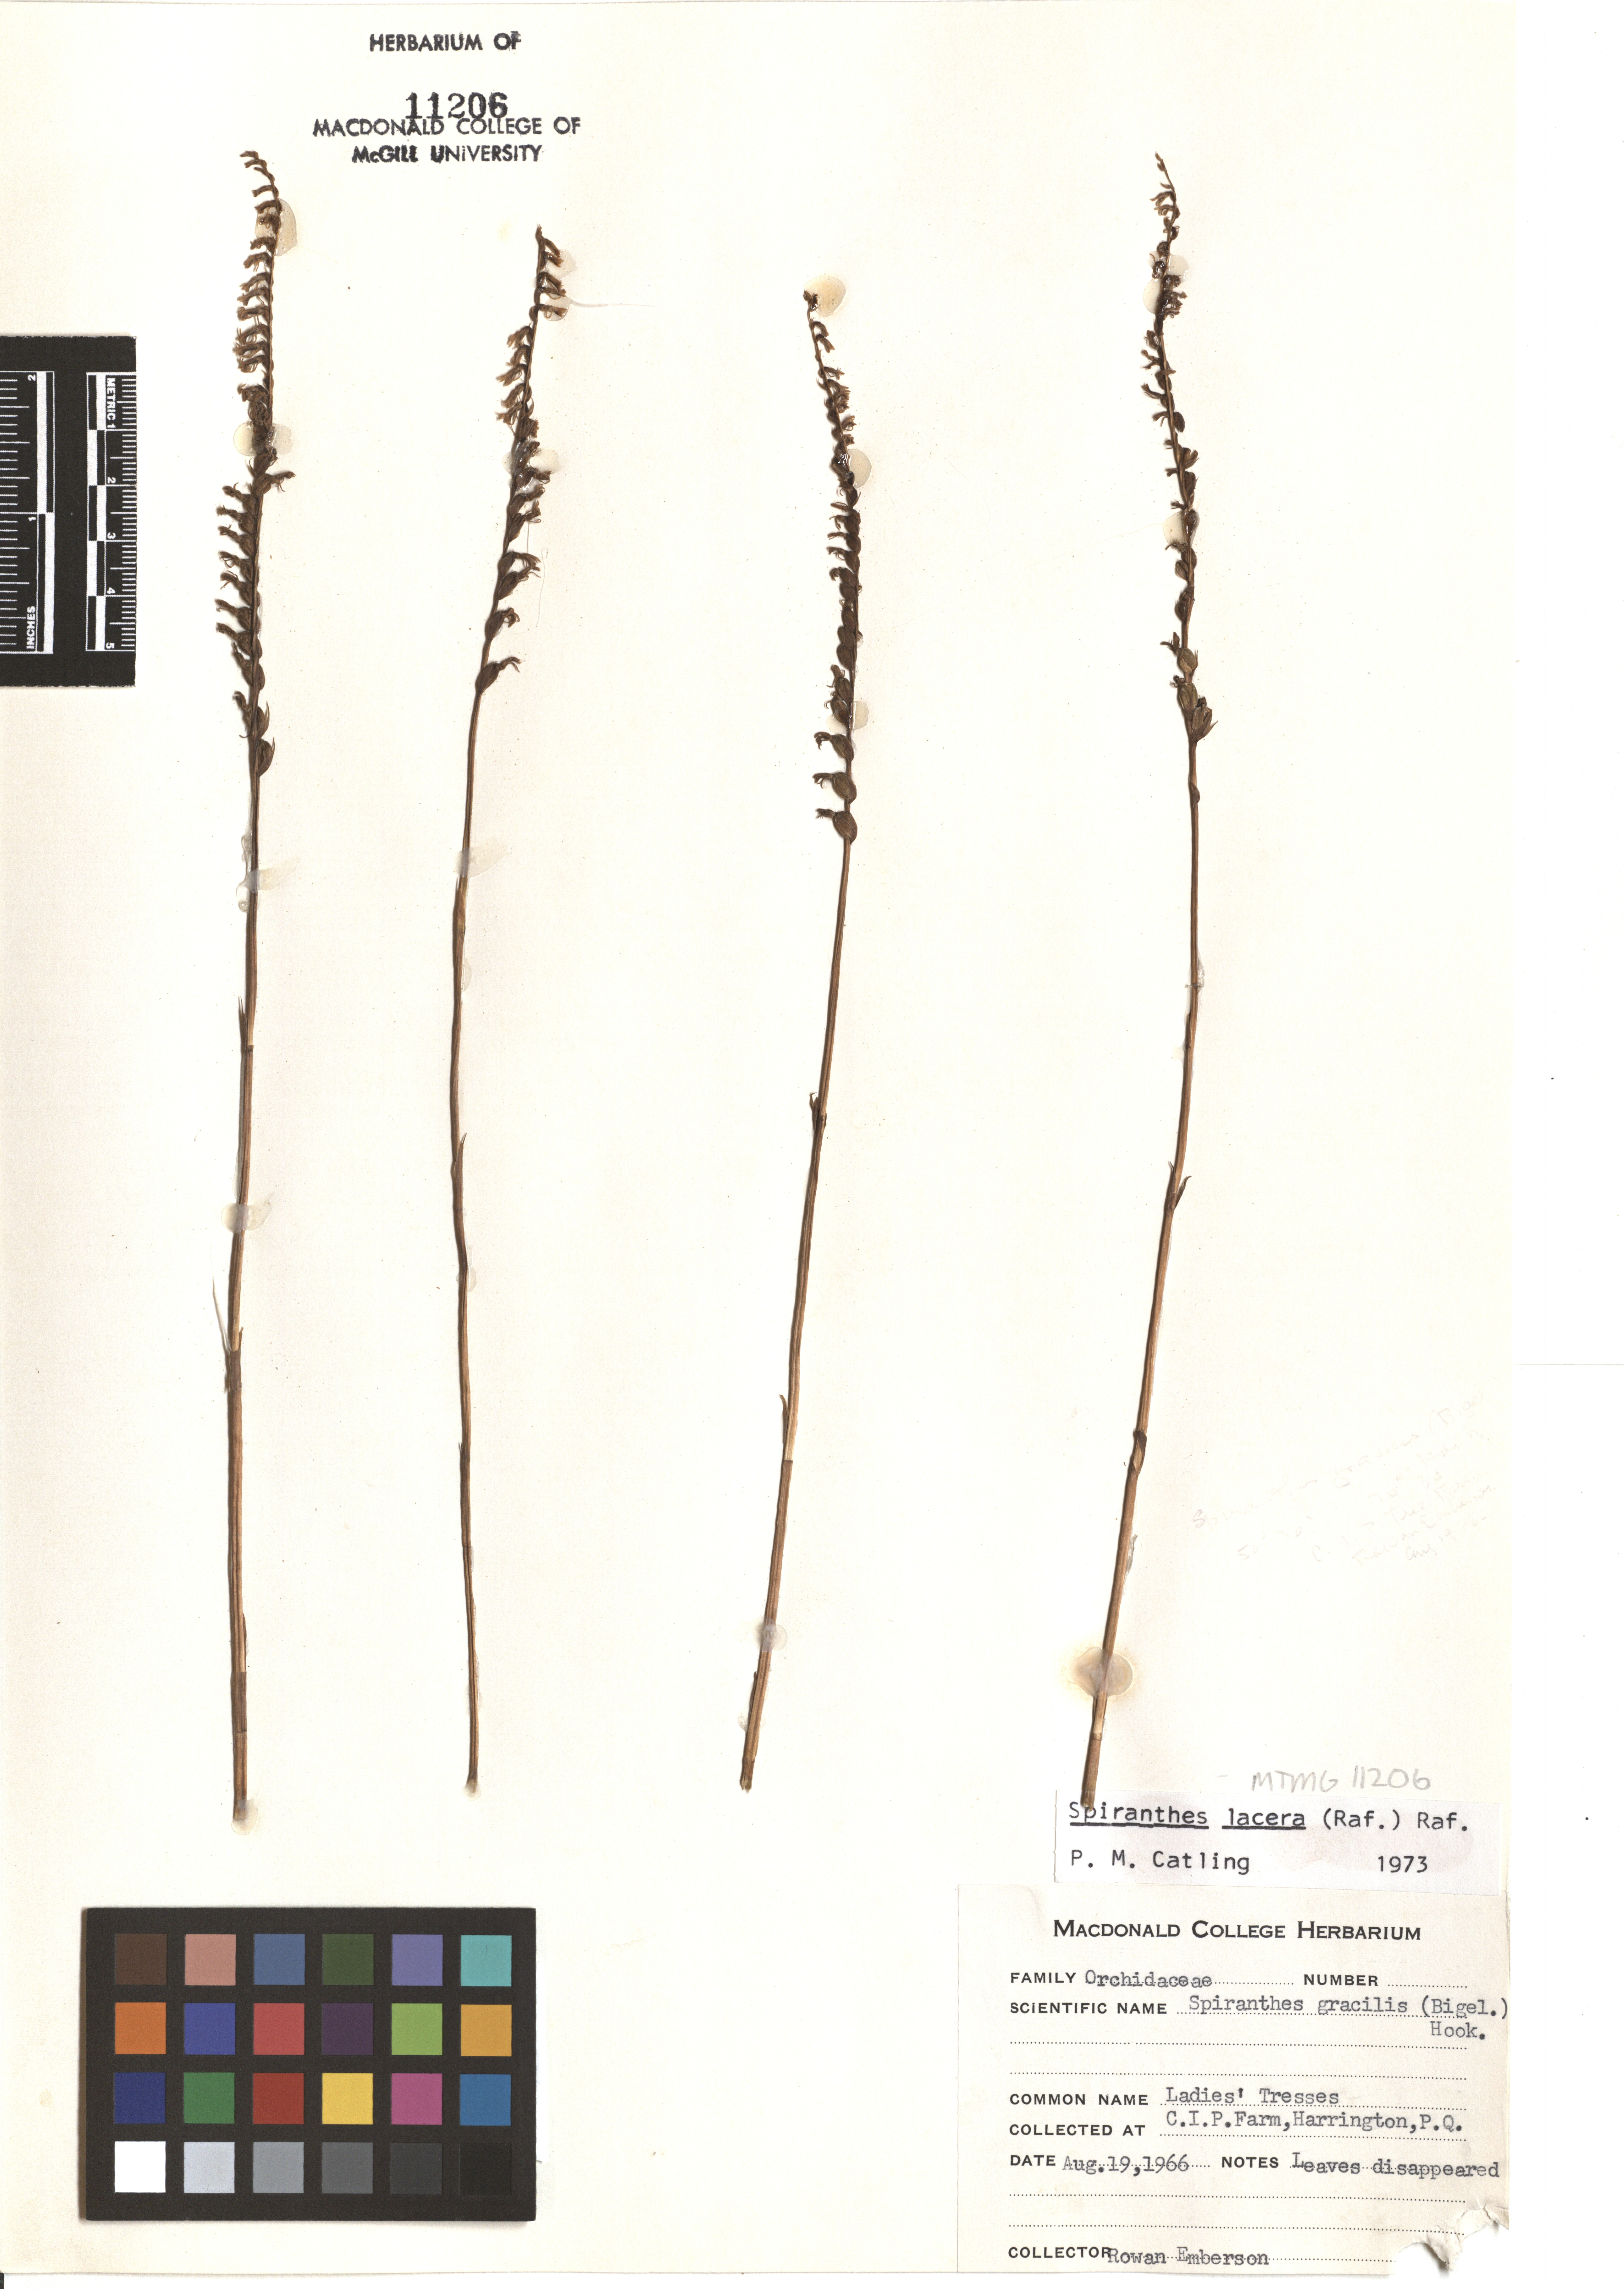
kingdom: Plantae
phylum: Tracheophyta
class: Liliopsida
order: Asparagales
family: Orchidaceae
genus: Spiranthes
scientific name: Spiranthes lacera
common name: Northern slender ladies'-tresses
